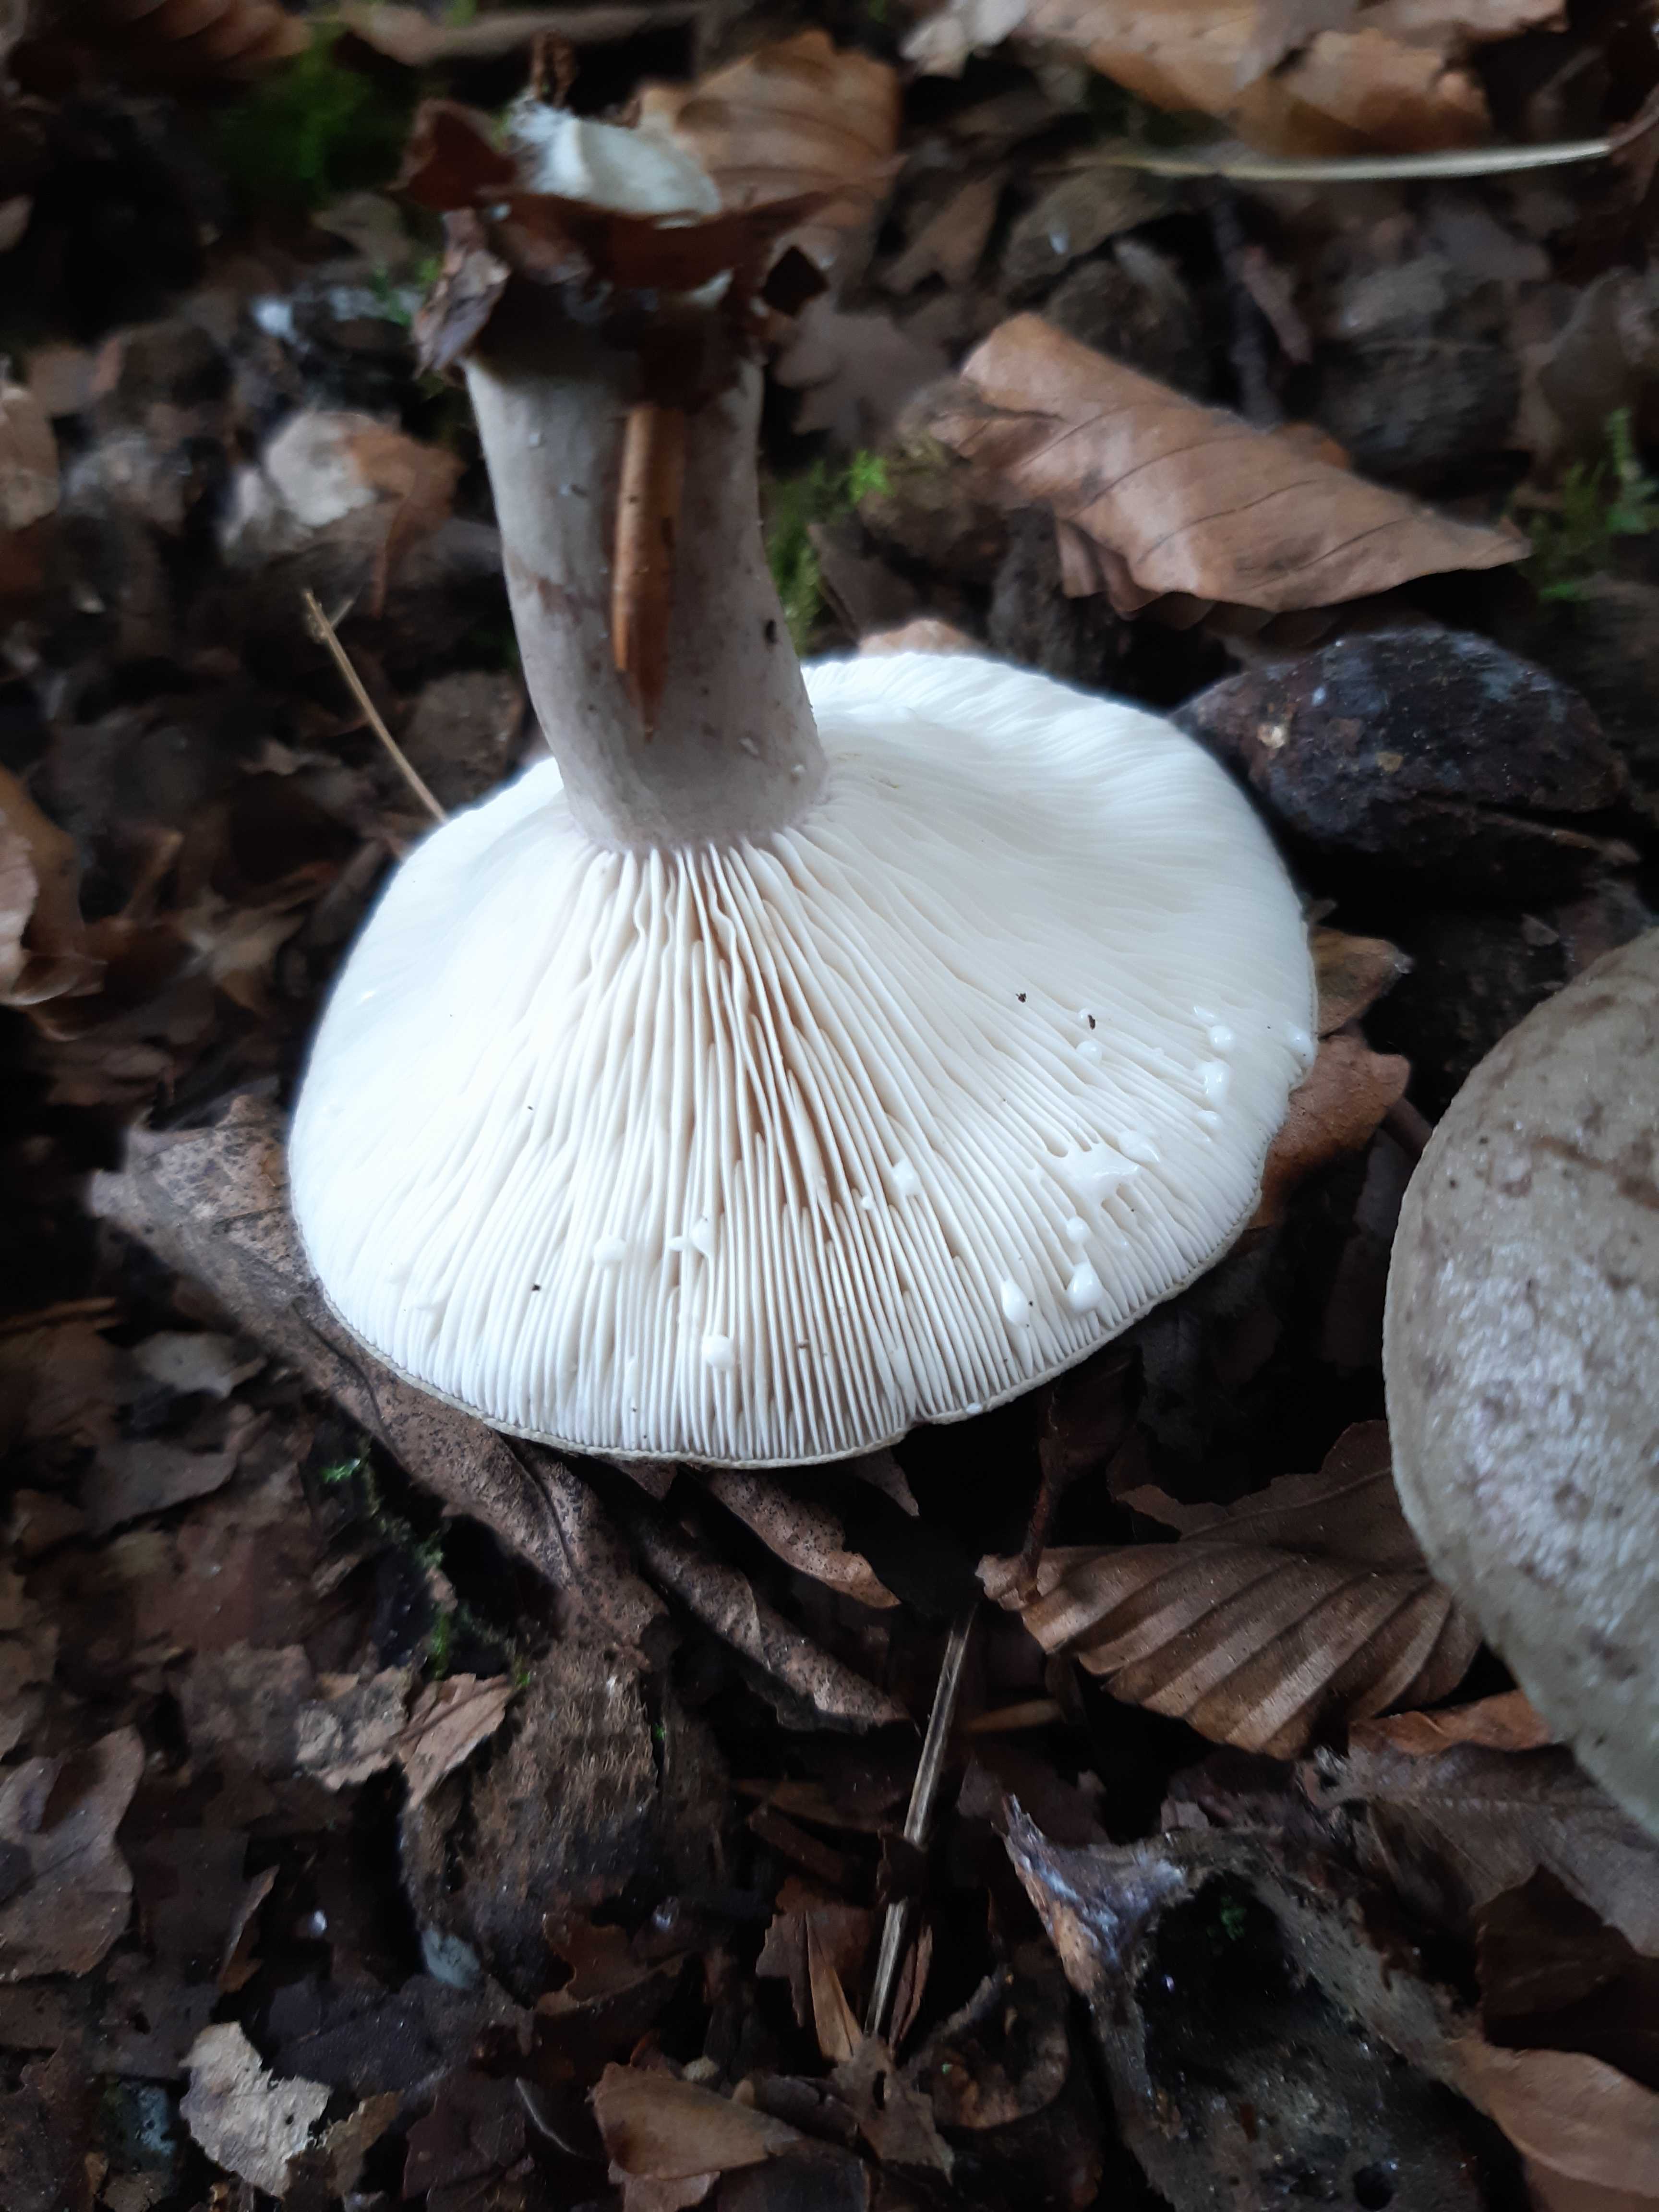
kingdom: Fungi
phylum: Basidiomycota
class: Agaricomycetes
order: Russulales
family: Russulaceae
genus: Lactarius
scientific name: Lactarius blennius
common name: dråbeplettet mælkehat
